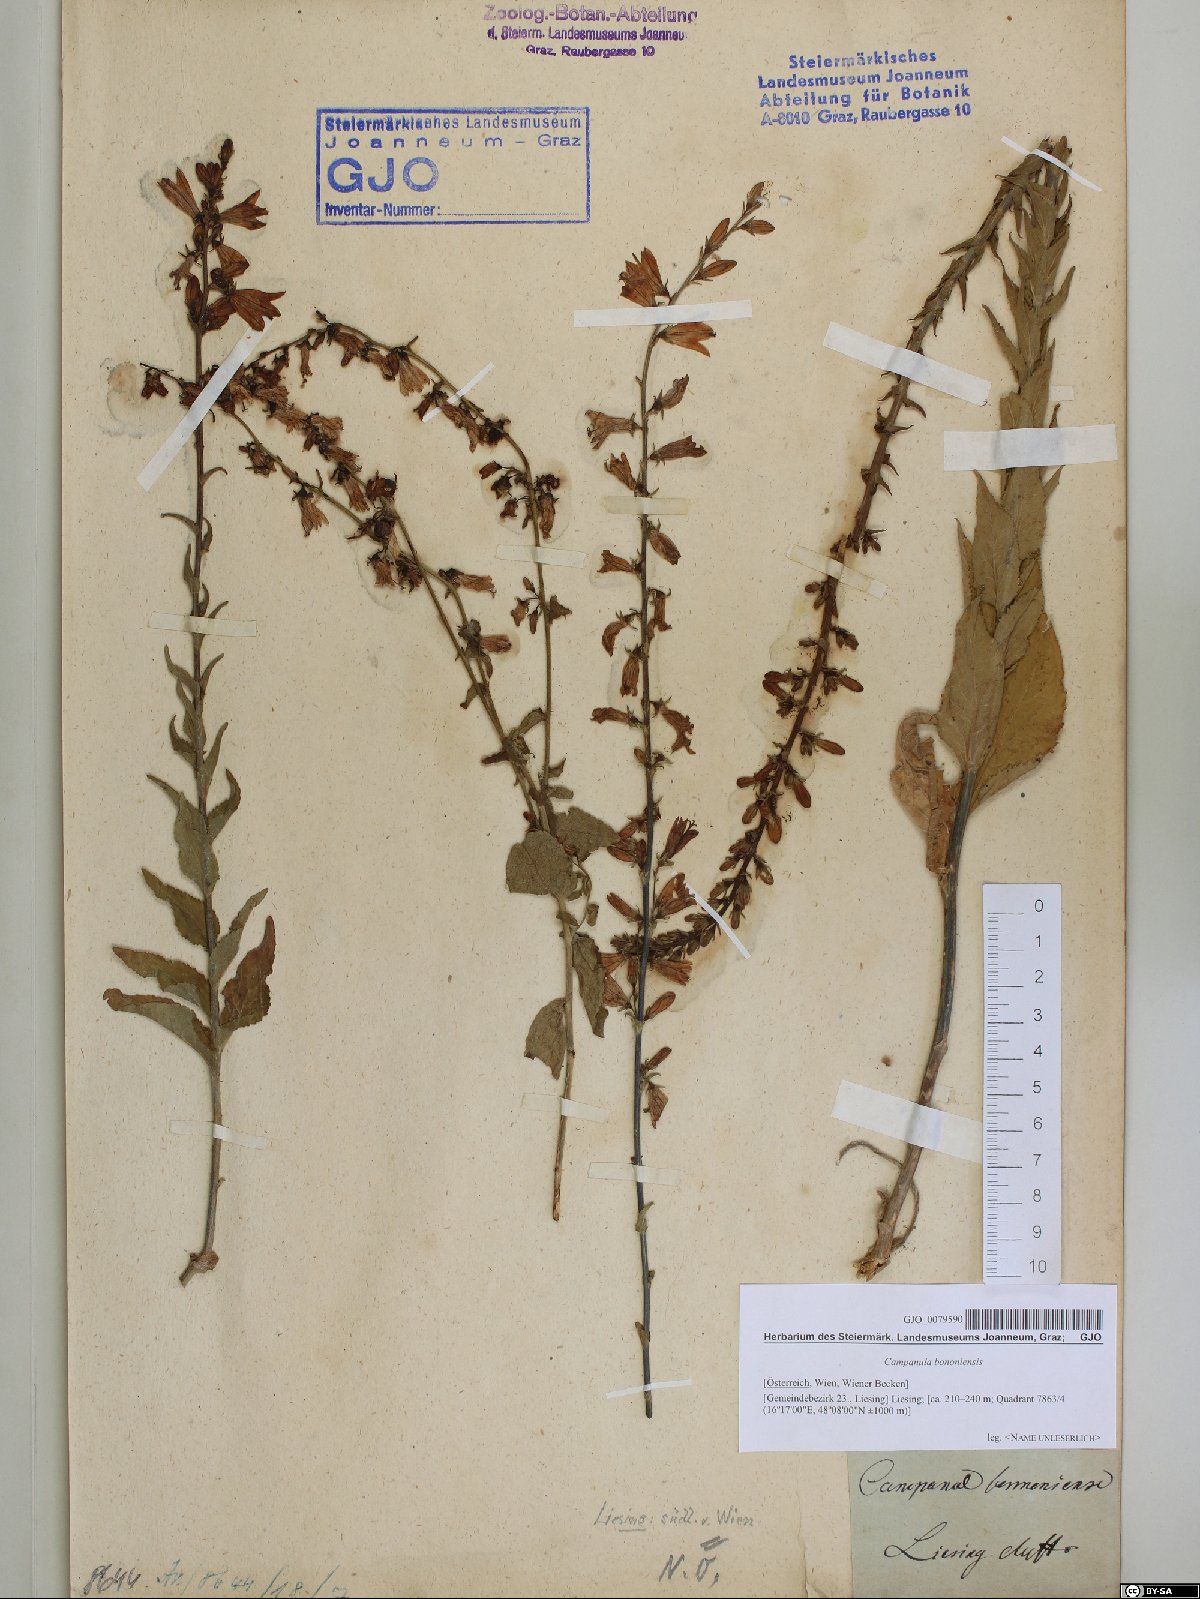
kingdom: Plantae
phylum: Tracheophyta
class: Magnoliopsida
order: Asterales
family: Campanulaceae
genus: Campanula
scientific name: Campanula bononiensis
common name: Pale bellflower
